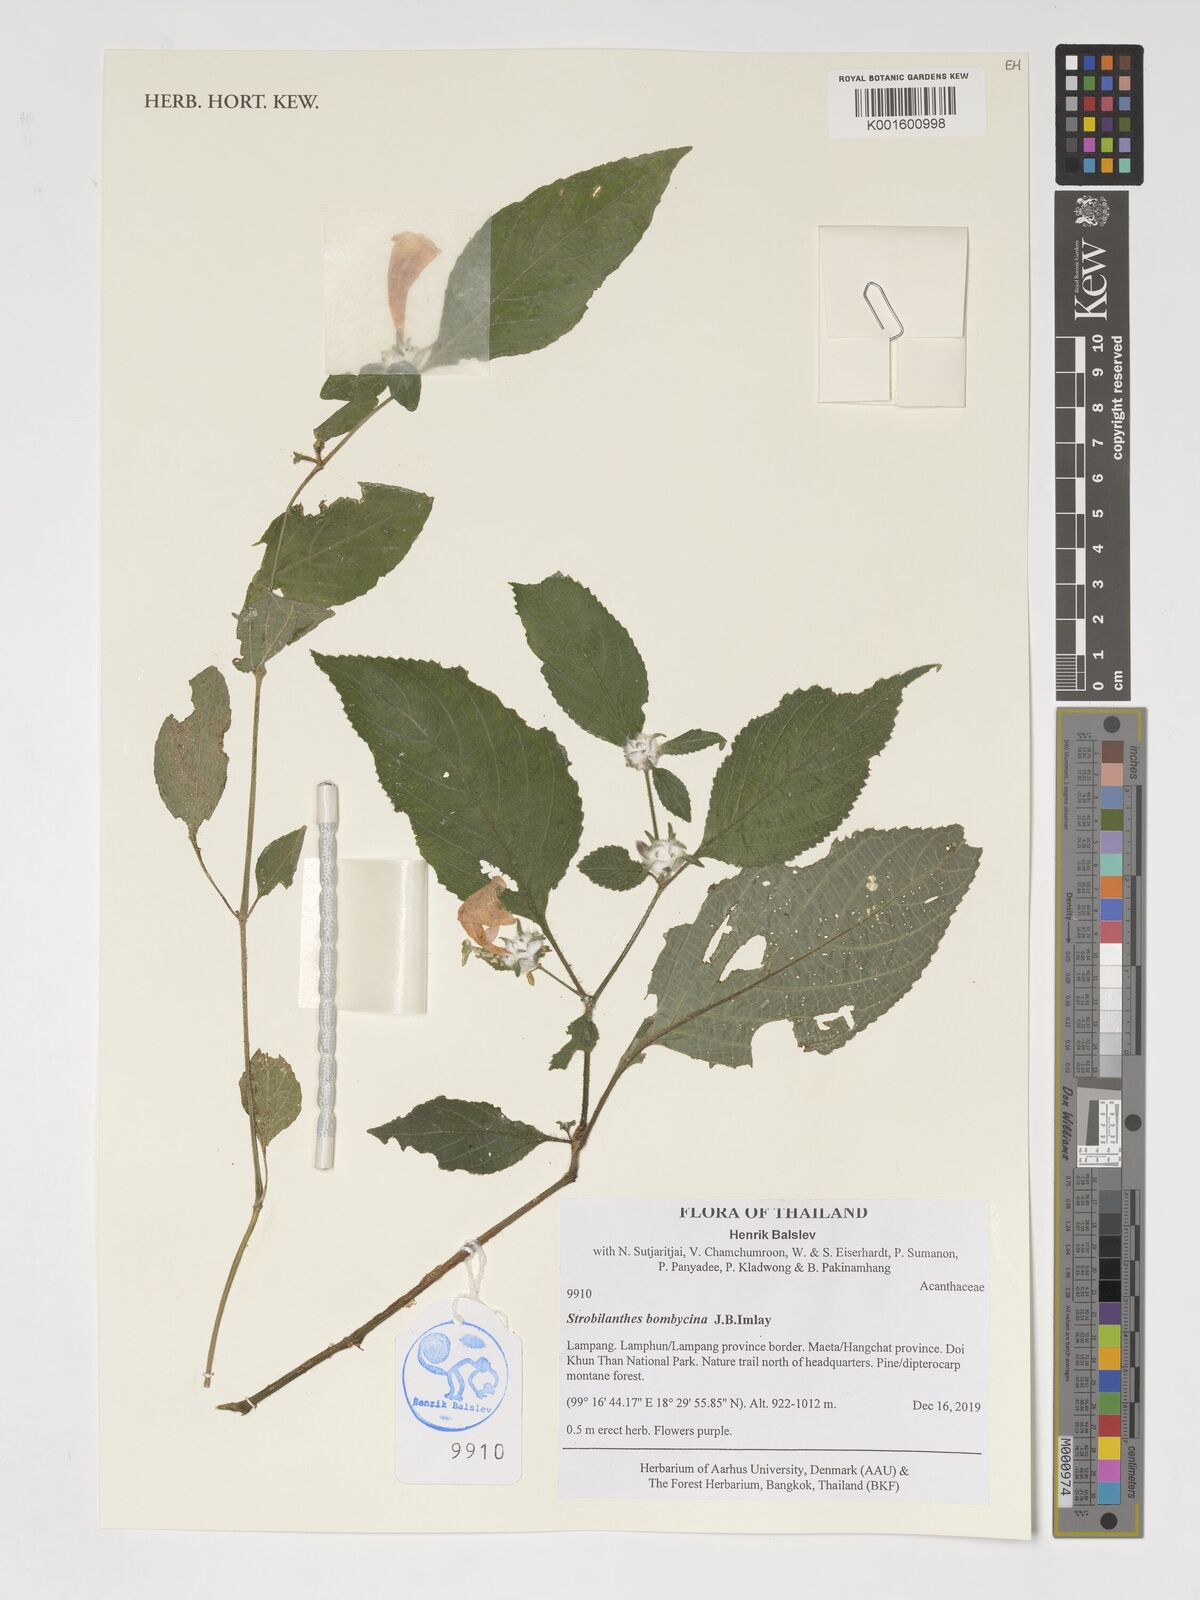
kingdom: Plantae
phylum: Tracheophyta
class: Magnoliopsida
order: Lamiales
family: Acanthaceae
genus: Strobilanthes
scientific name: Strobilanthes esquirolii
